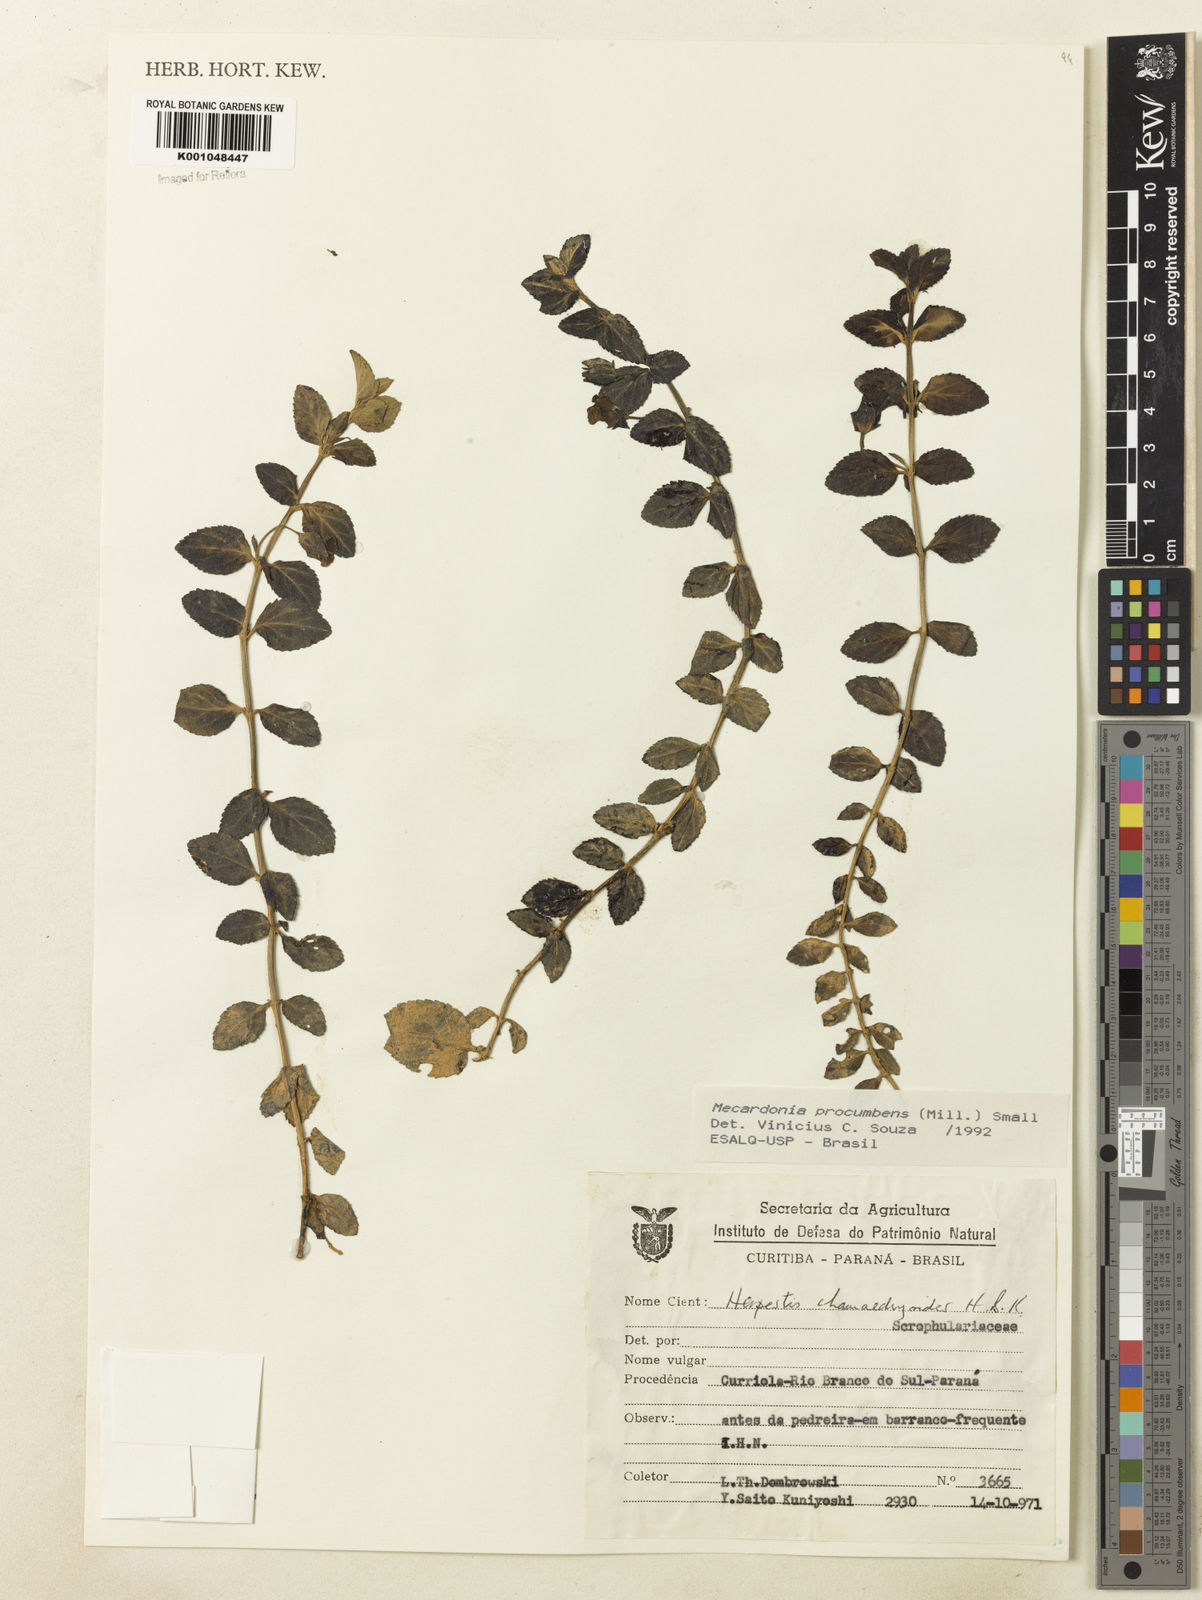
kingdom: Plantae
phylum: Tracheophyta
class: Magnoliopsida
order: Lamiales
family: Plantaginaceae
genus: Mecardonia
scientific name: Mecardonia procumbens
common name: Baby jump-up
